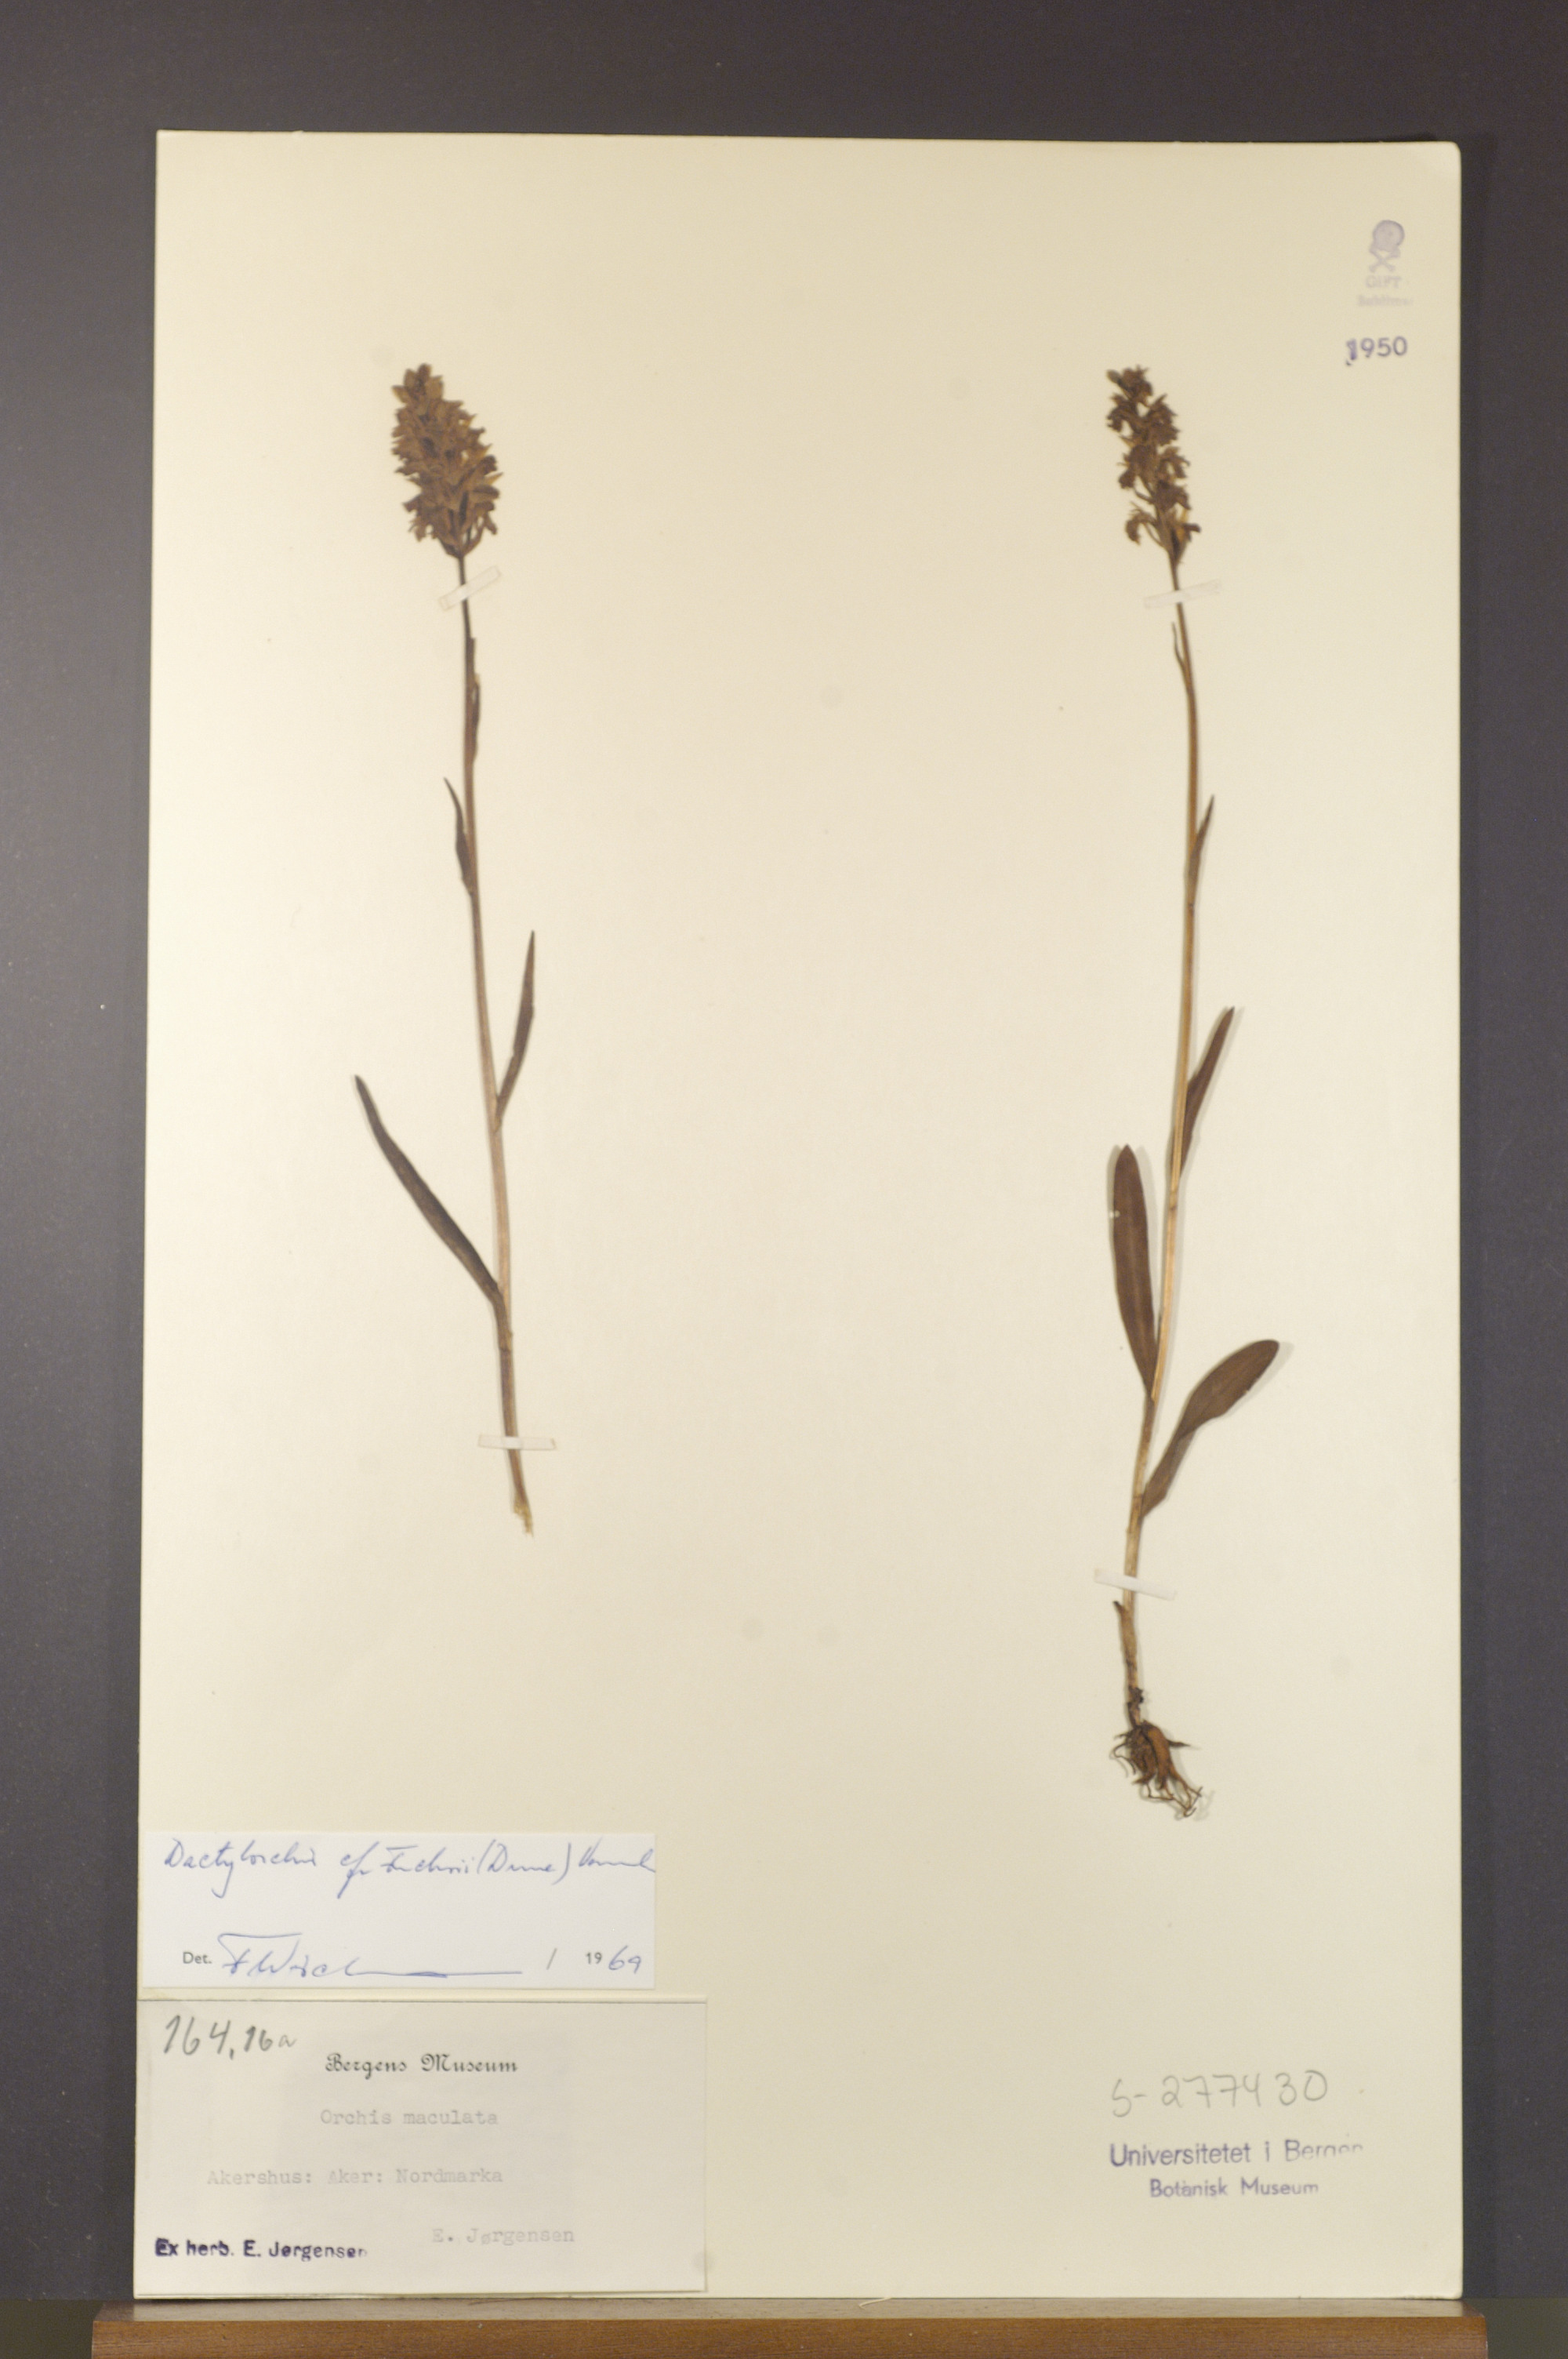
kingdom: Plantae
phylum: Tracheophyta
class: Liliopsida
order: Asparagales
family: Orchidaceae
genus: Dactylorhiza
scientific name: Dactylorhiza maculata
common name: Heath spotted-orchid
